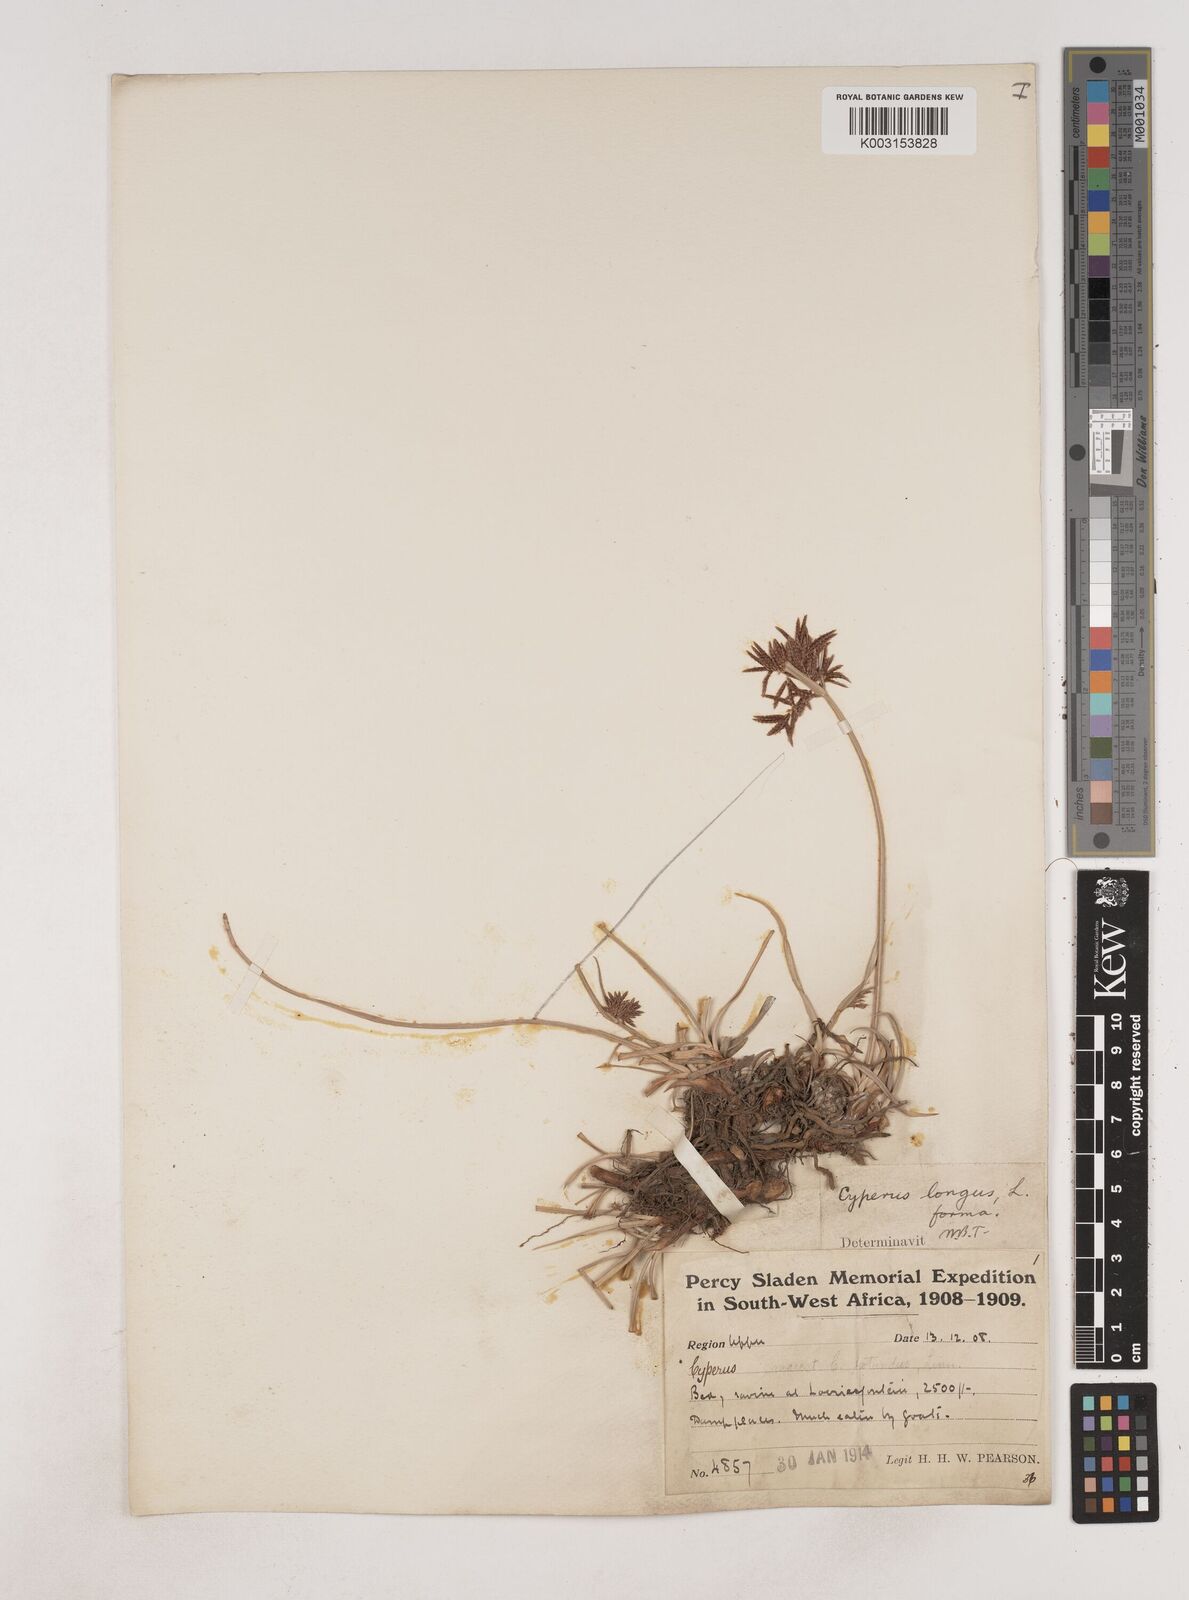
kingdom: Plantae
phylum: Tracheophyta
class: Liliopsida
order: Poales
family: Cyperaceae
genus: Cyperus
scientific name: Cyperus
